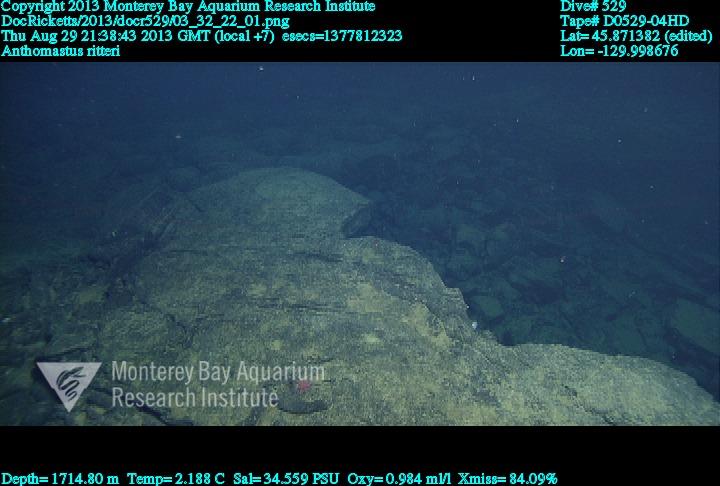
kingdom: Animalia
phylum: Cnidaria
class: Anthozoa
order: Scleralcyonacea
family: Coralliidae
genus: Heteropolypus
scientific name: Heteropolypus ritteri
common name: Ritter's soft coral
